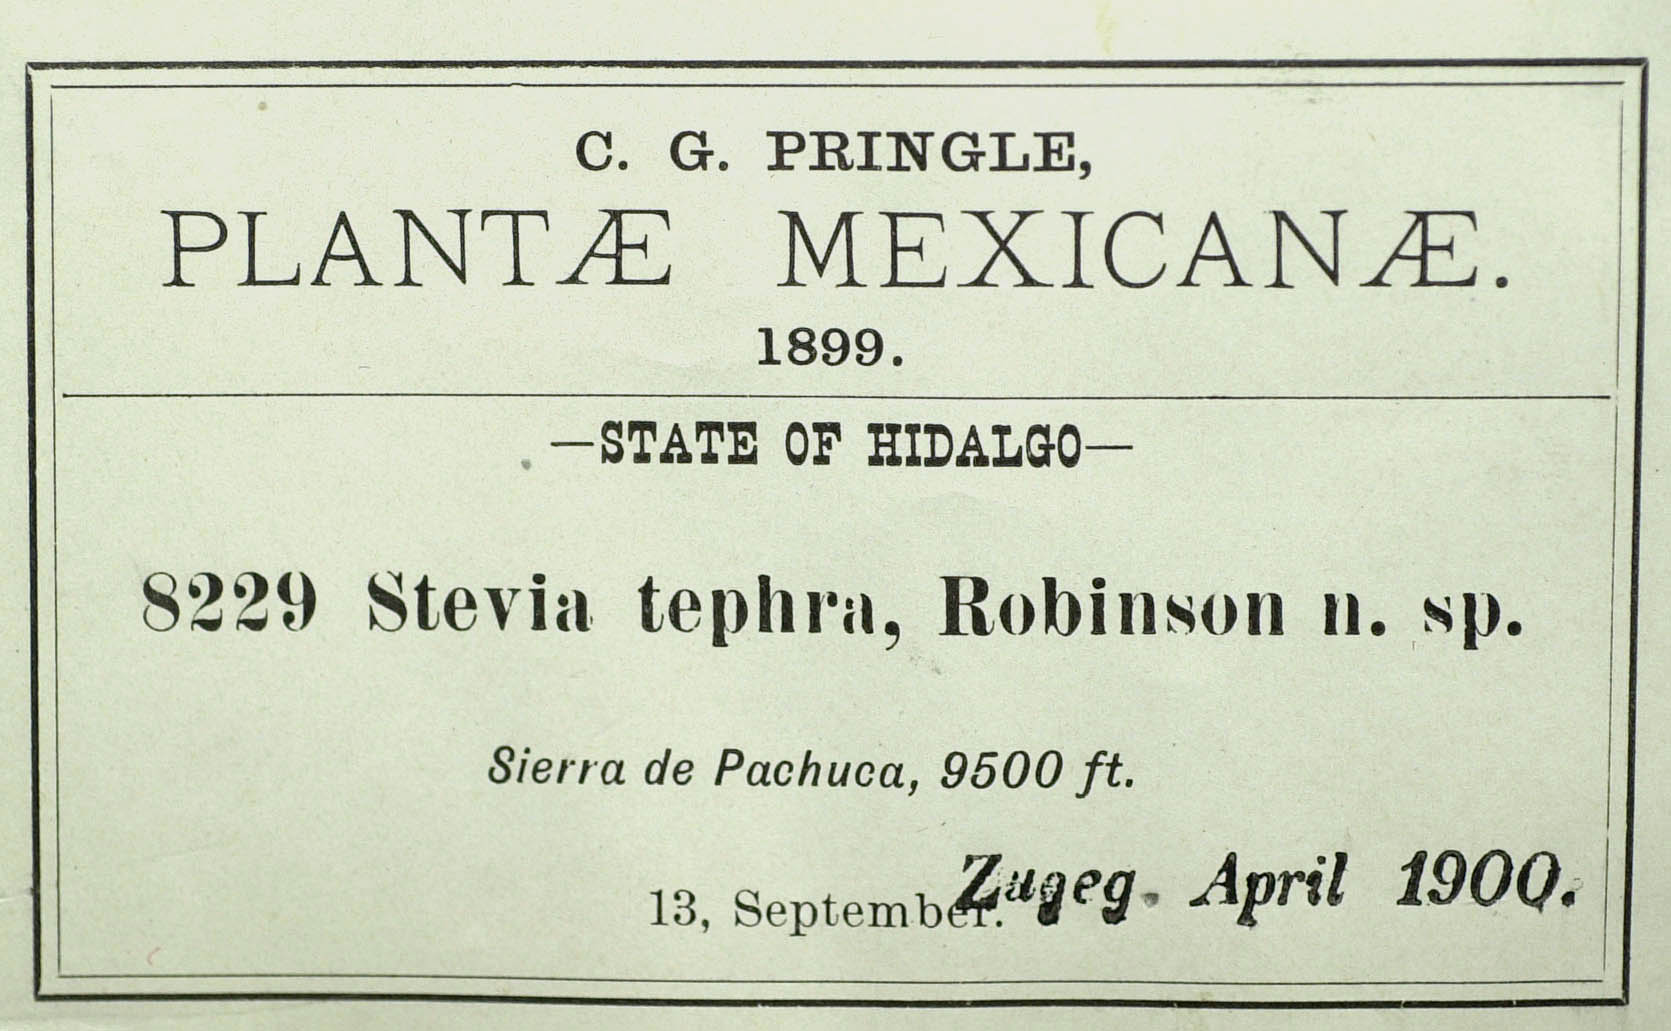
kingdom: Plantae
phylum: Tracheophyta
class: Magnoliopsida
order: Asterales
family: Asteraceae
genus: Stevia
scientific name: Stevia tephra
